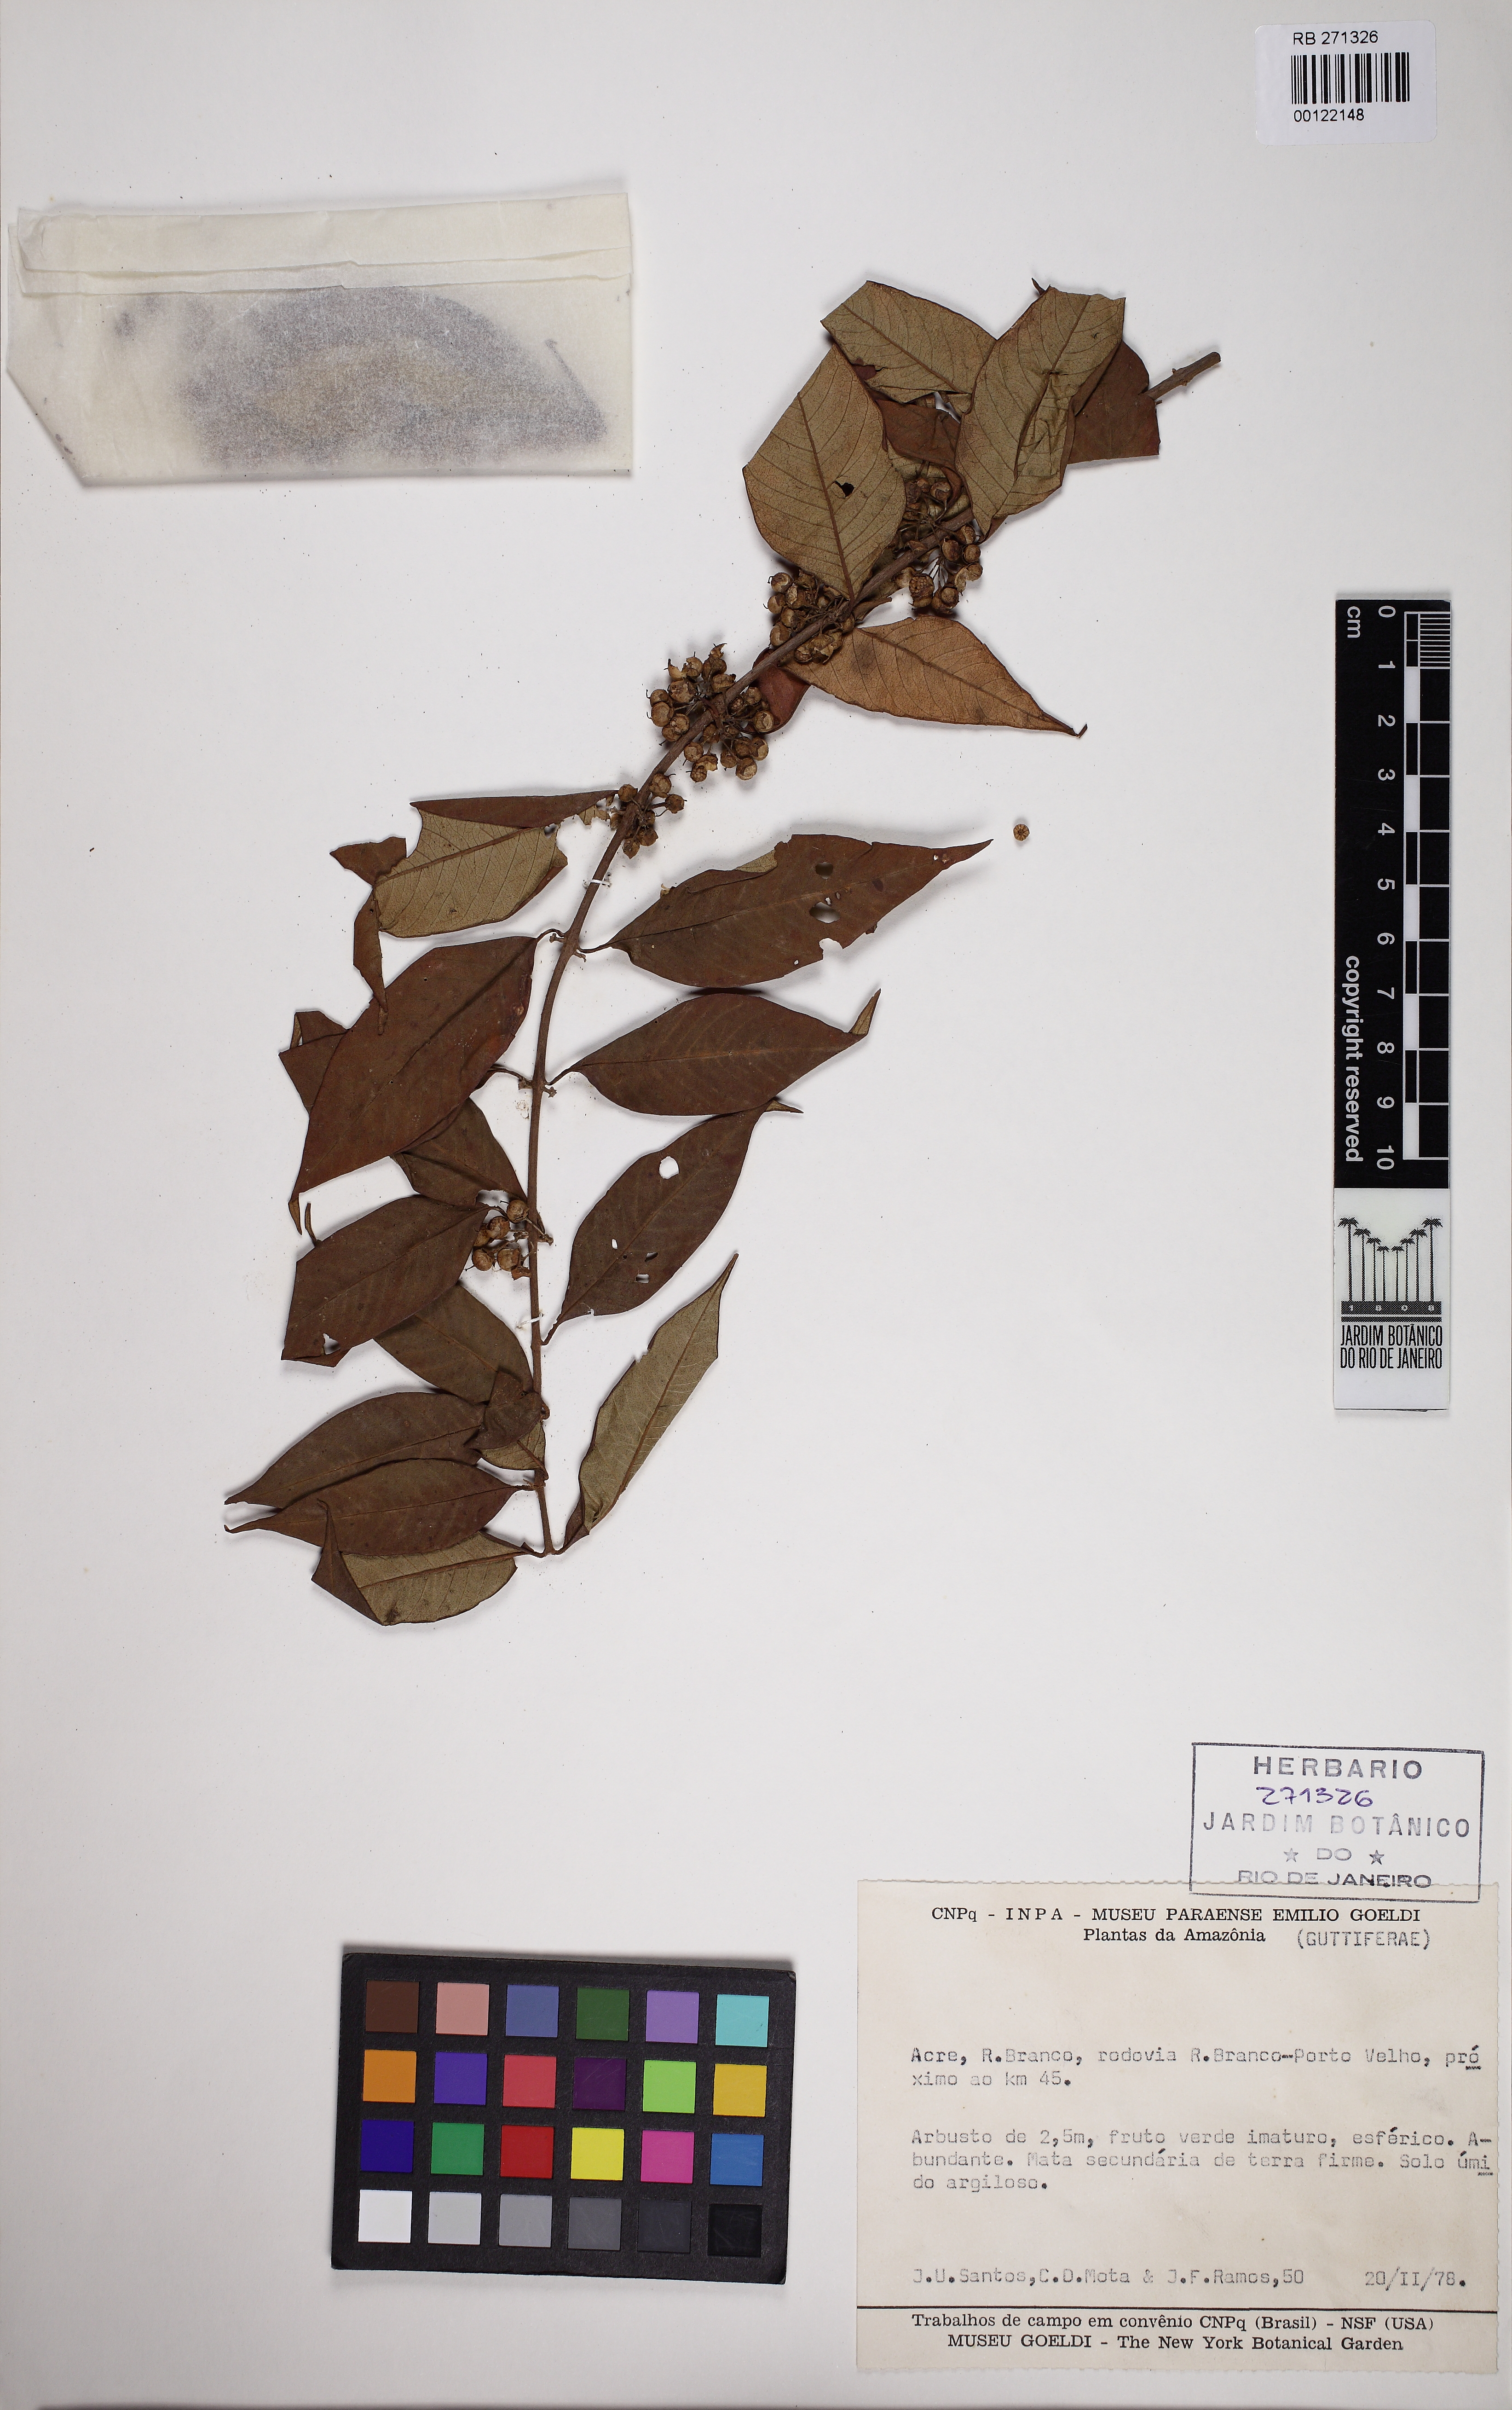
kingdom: Plantae
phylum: Tracheophyta
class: Magnoliopsida
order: Malpighiales
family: Hypericaceae
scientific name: Hypericaceae
